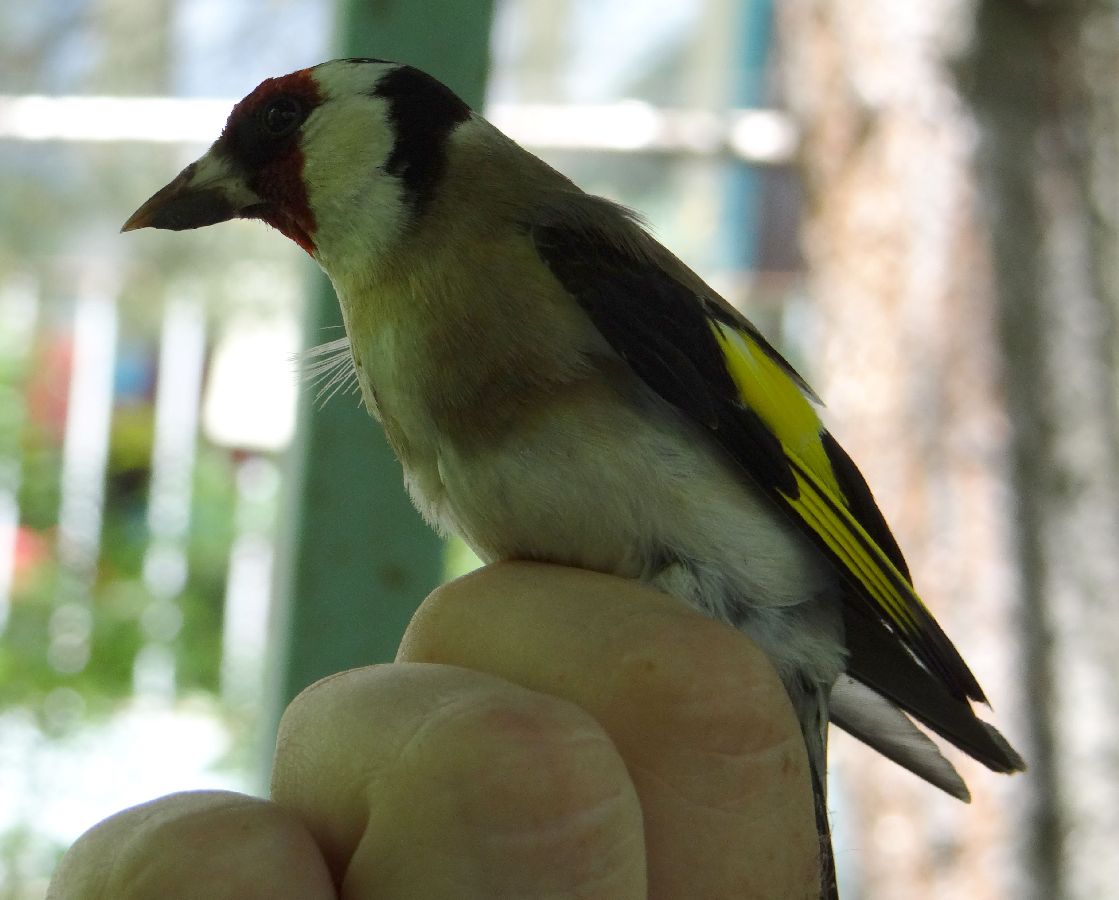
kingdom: Animalia
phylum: Chordata
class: Aves
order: Passeriformes
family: Fringillidae
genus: Carduelis
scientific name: Carduelis carduelis
